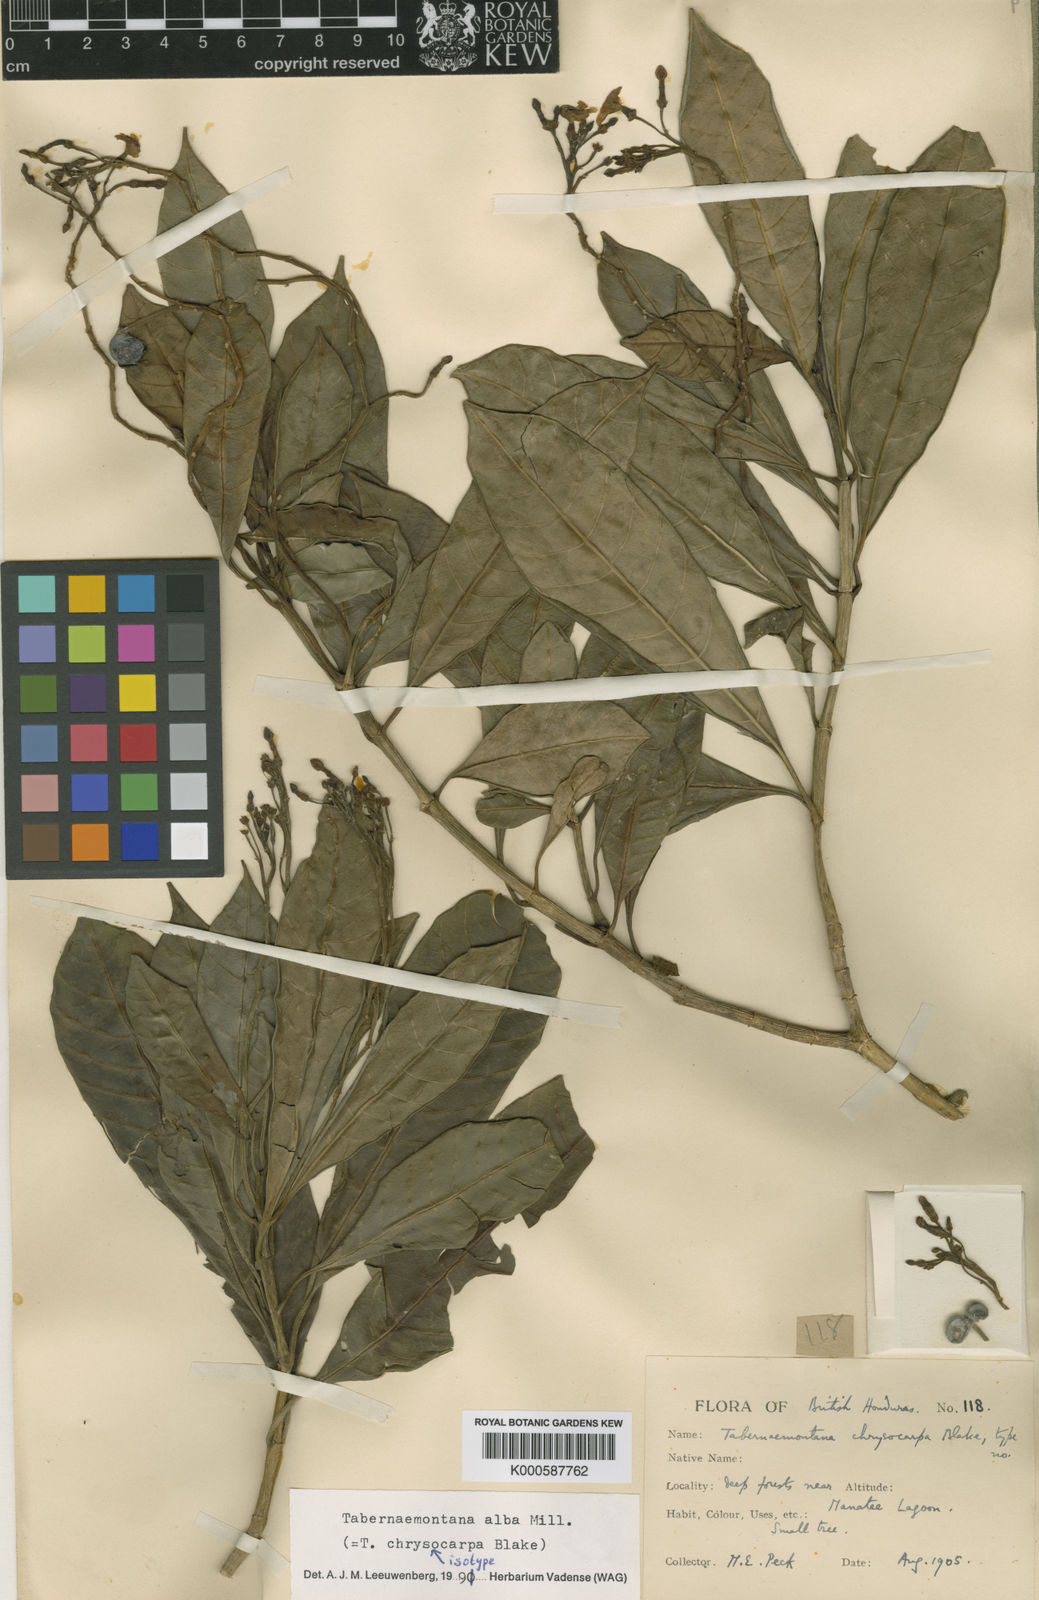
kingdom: Plantae
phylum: Tracheophyta
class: Magnoliopsida
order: Gentianales
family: Apocynaceae
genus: Tabernaemontana
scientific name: Tabernaemontana alba
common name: White milkwood
